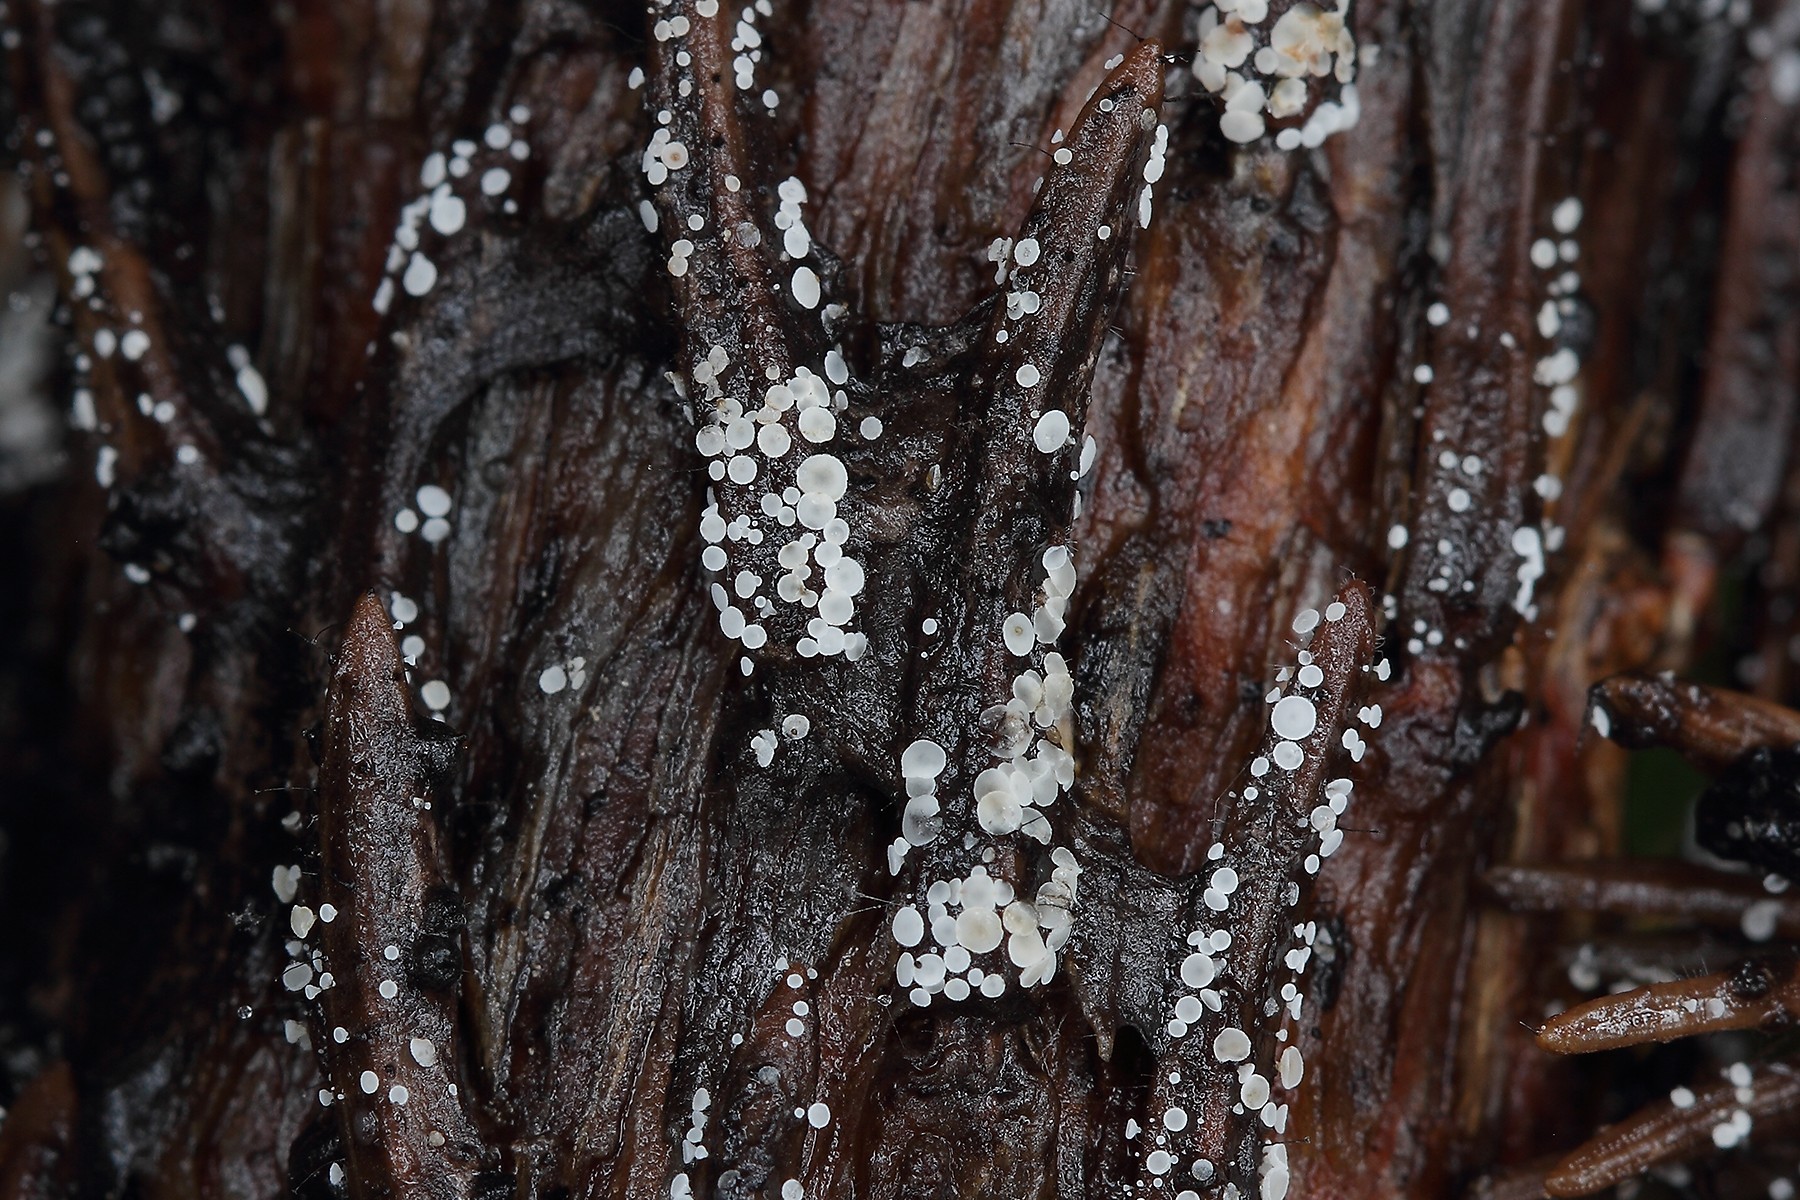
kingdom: Fungi
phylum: Ascomycota
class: Leotiomycetes
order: Helotiales
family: Hyaloscyphaceae
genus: Cistella
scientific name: Cistella acuum
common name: nåle-sirskive
